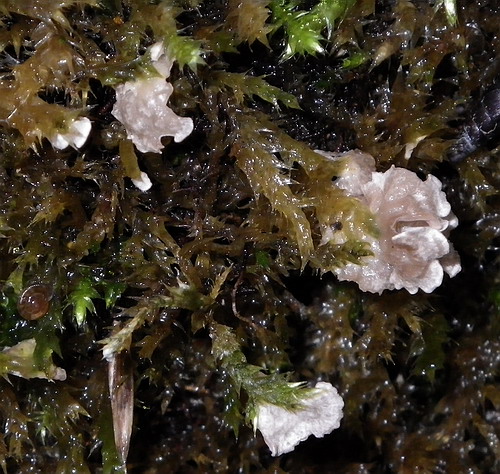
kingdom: Fungi
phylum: Basidiomycota
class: Agaricomycetes
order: Agaricales
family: Hygrophoraceae
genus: Arrhenia
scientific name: Arrhenia retiruga
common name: lille fontænehat
